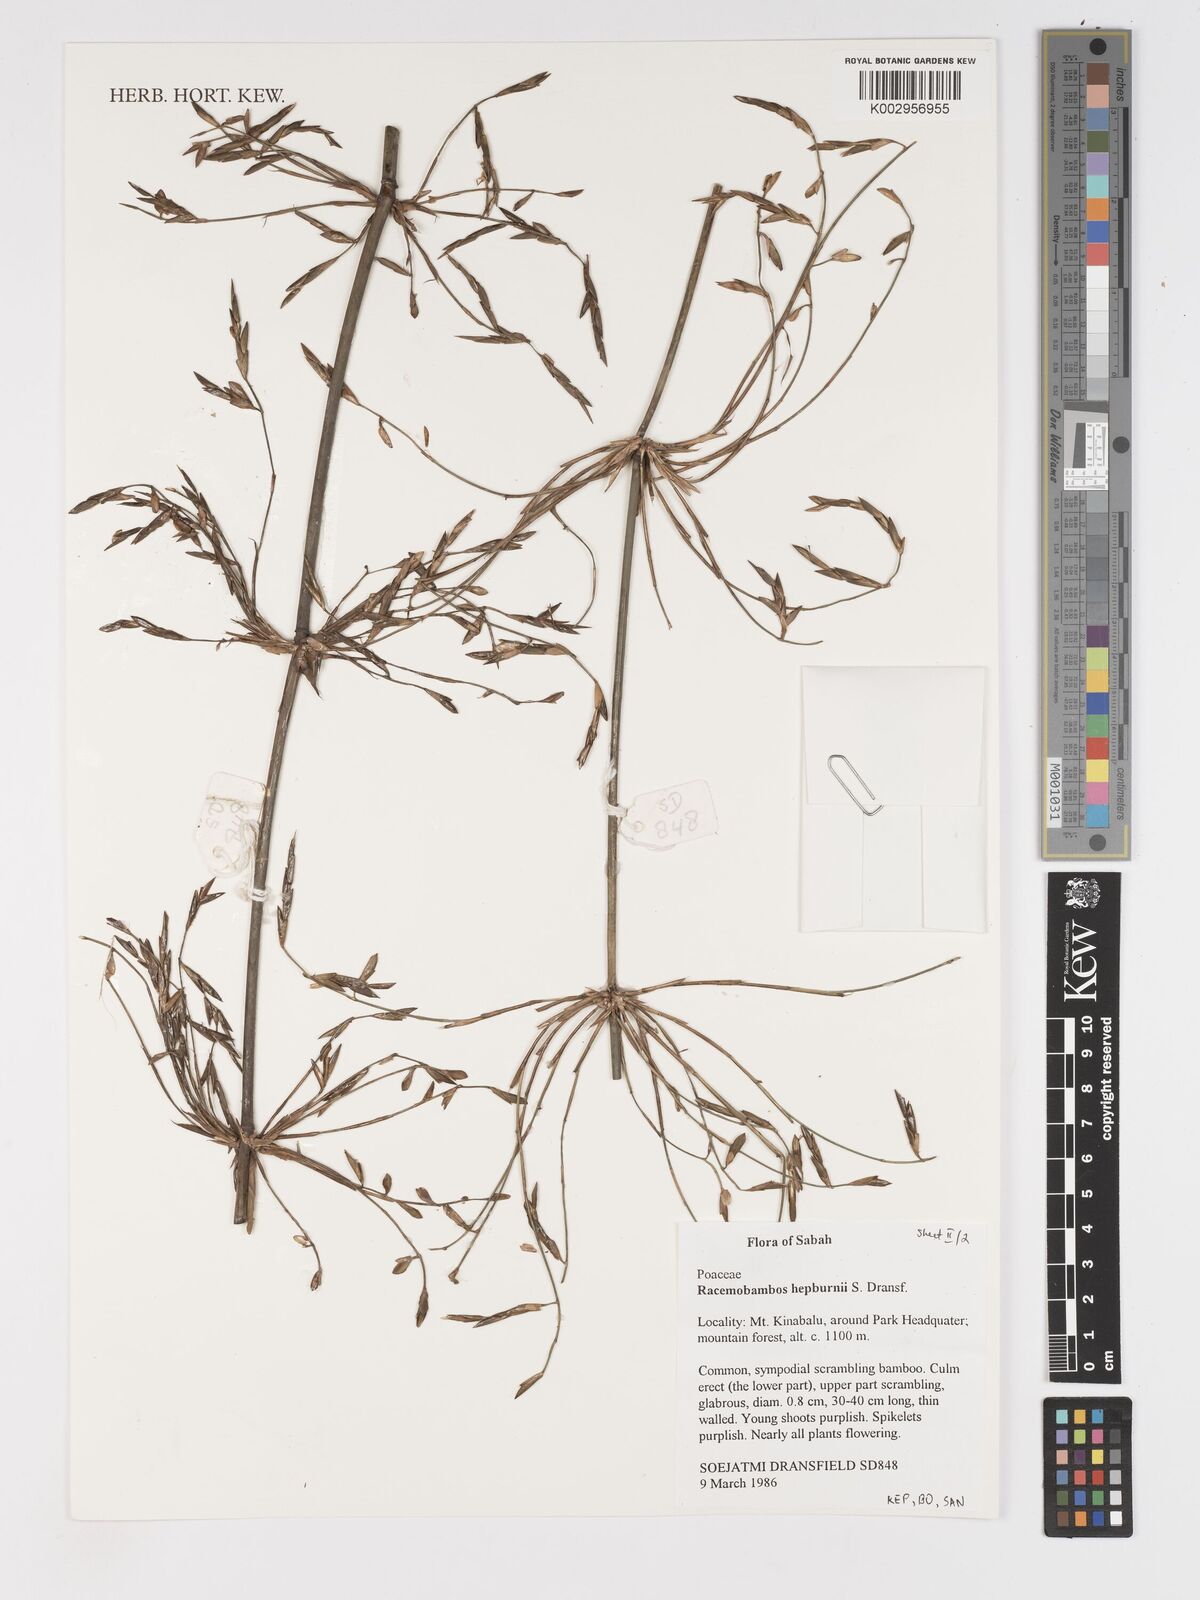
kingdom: Plantae
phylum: Tracheophyta
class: Liliopsida
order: Poales
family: Poaceae
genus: Racemobambos
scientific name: Racemobambos hepburnii
